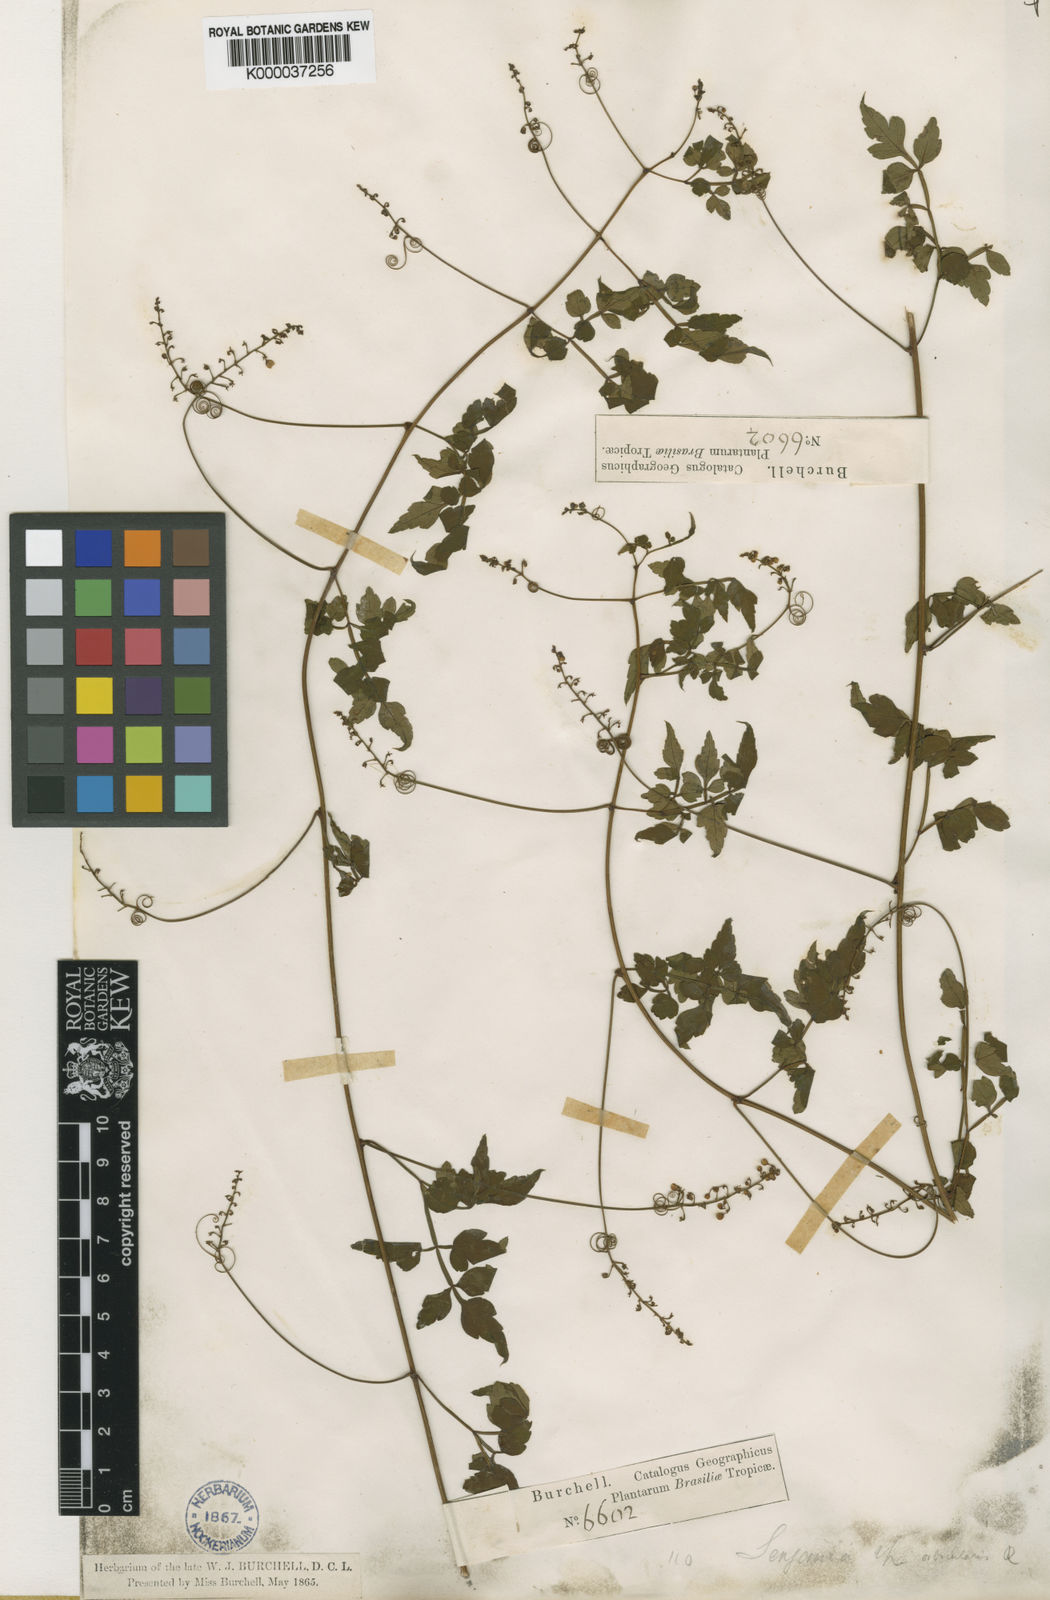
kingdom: Plantae
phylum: Tracheophyta
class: Magnoliopsida
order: Sapindales
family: Sapindaceae
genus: Serjania
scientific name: Serjania orbicularis
